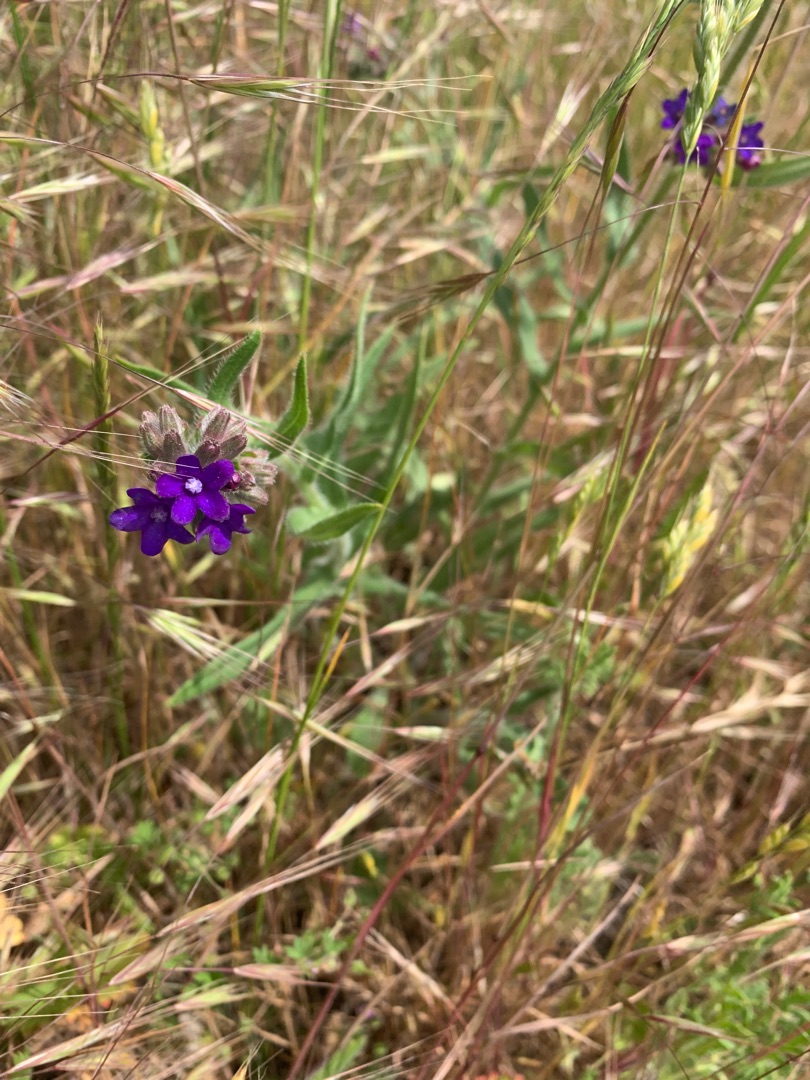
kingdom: Plantae
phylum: Tracheophyta
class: Magnoliopsida
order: Boraginales
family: Boraginaceae
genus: Anchusa
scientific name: Anchusa officinalis
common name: Læge-oksetunge
